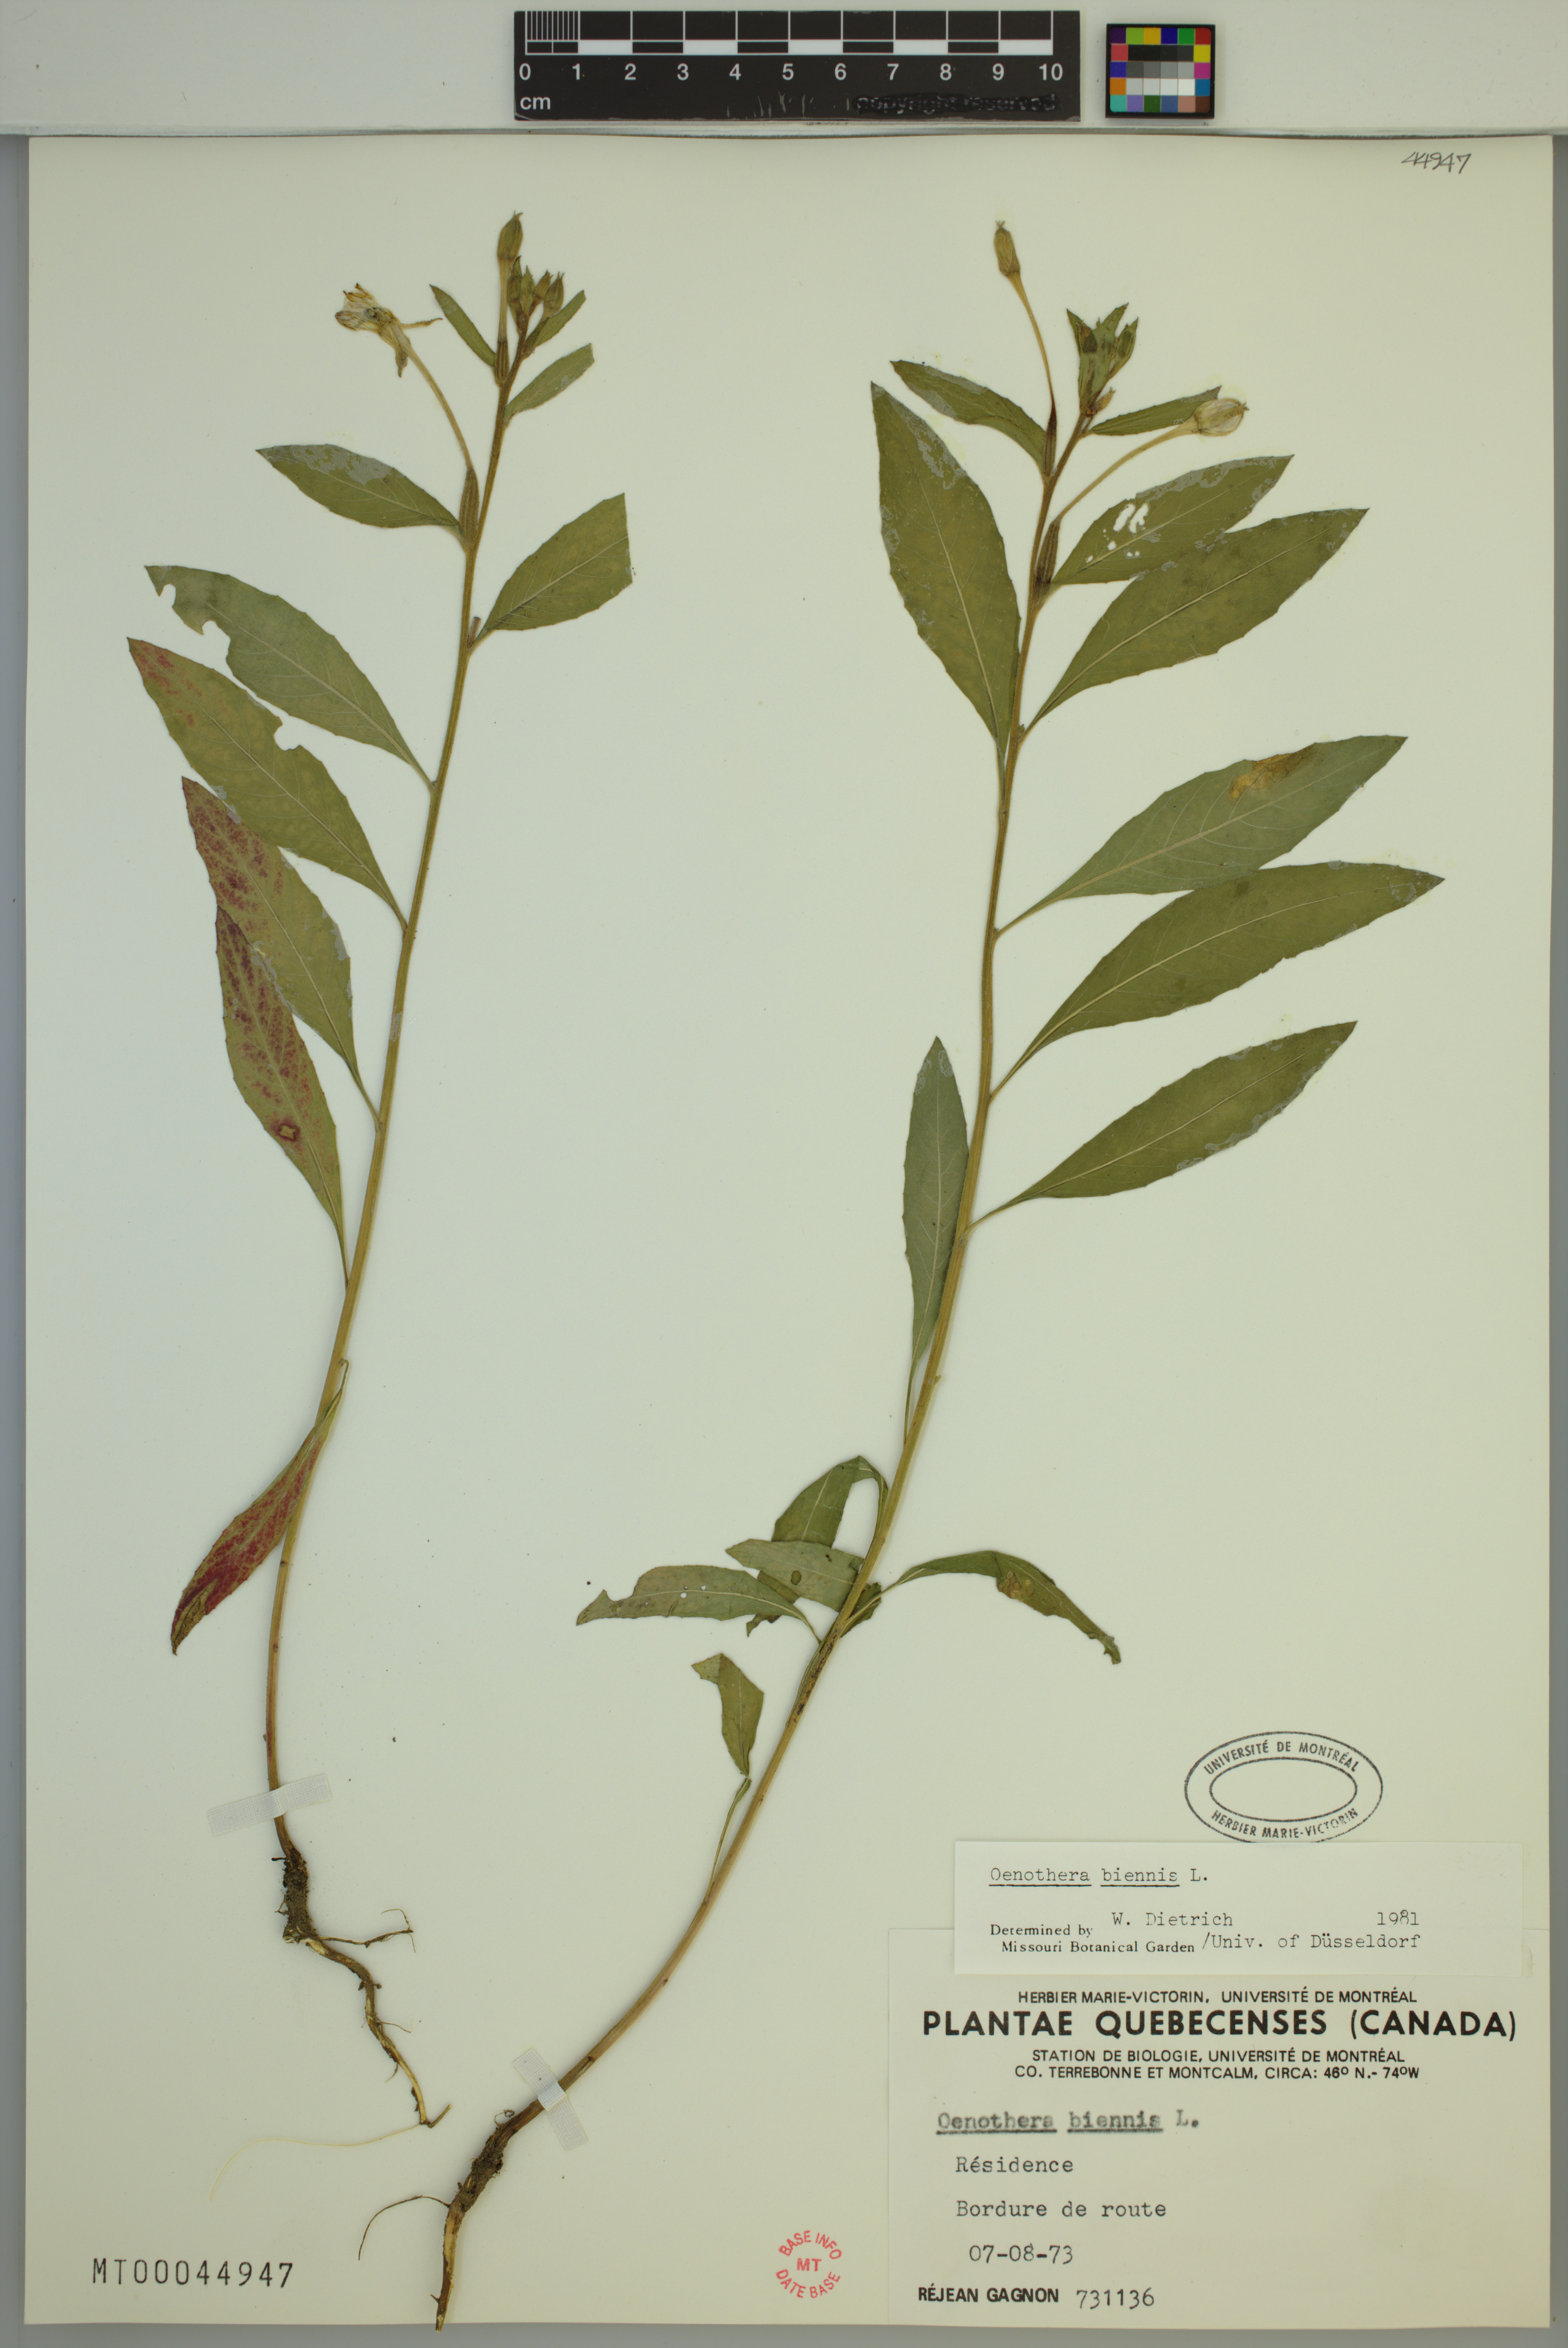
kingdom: Plantae
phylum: Tracheophyta
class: Magnoliopsida
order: Myrtales
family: Onagraceae
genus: Oenothera
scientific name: Oenothera biennis
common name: Common evening-primrose
